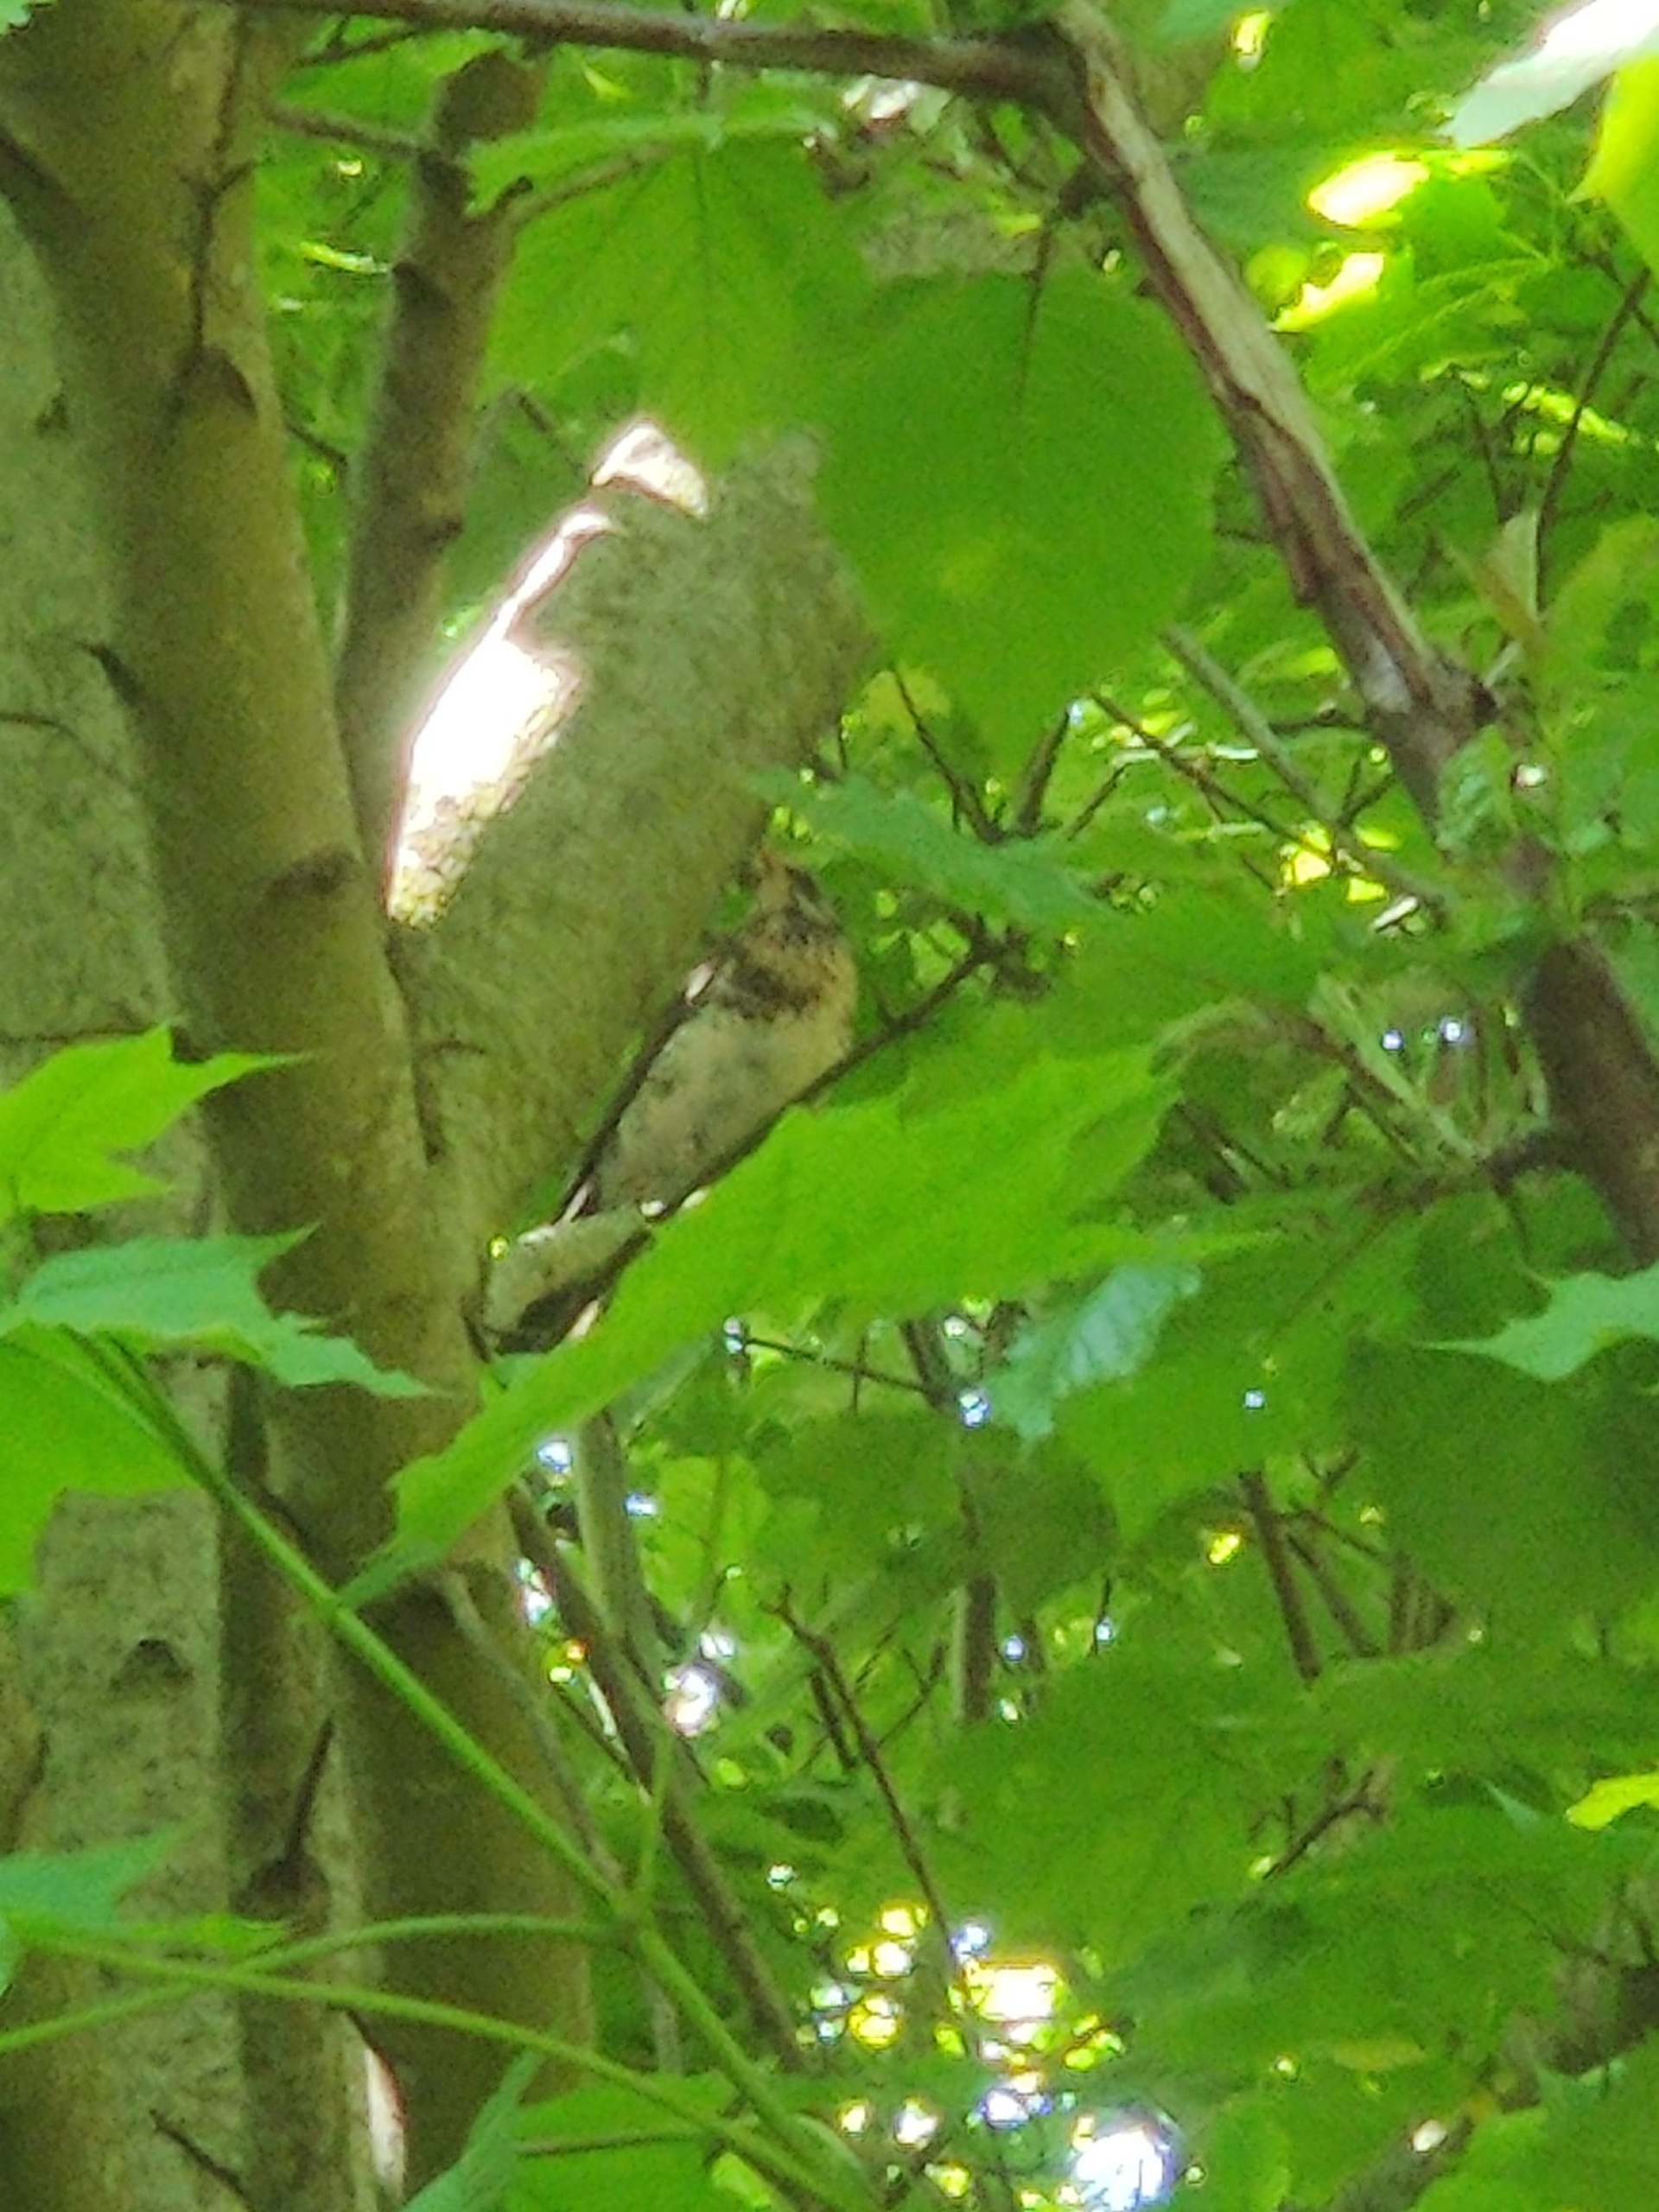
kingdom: Animalia
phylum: Chordata
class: Aves
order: Passeriformes
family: Turdidae
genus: Turdus
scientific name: Turdus pilaris
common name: Sjagger
